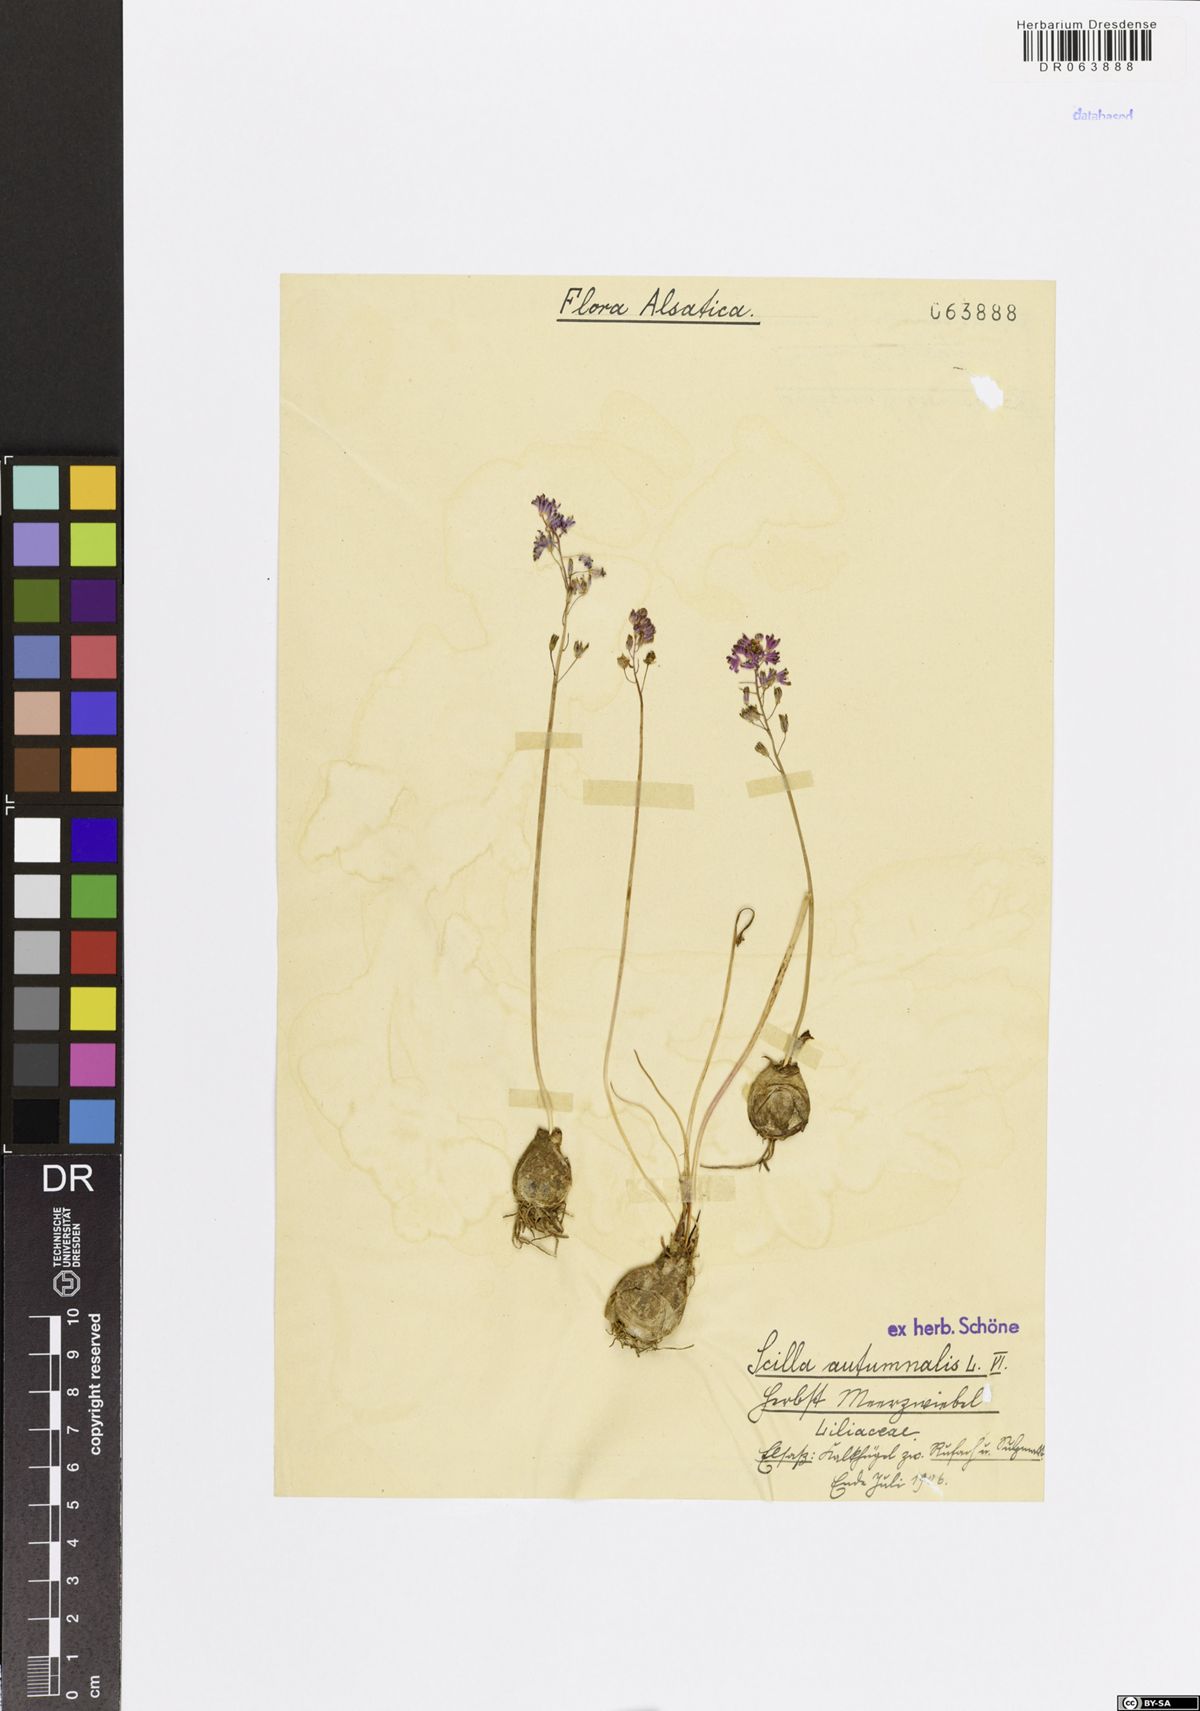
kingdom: Plantae
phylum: Tracheophyta
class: Liliopsida
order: Asparagales
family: Asparagaceae
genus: Prospero
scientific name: Prospero autumnale
